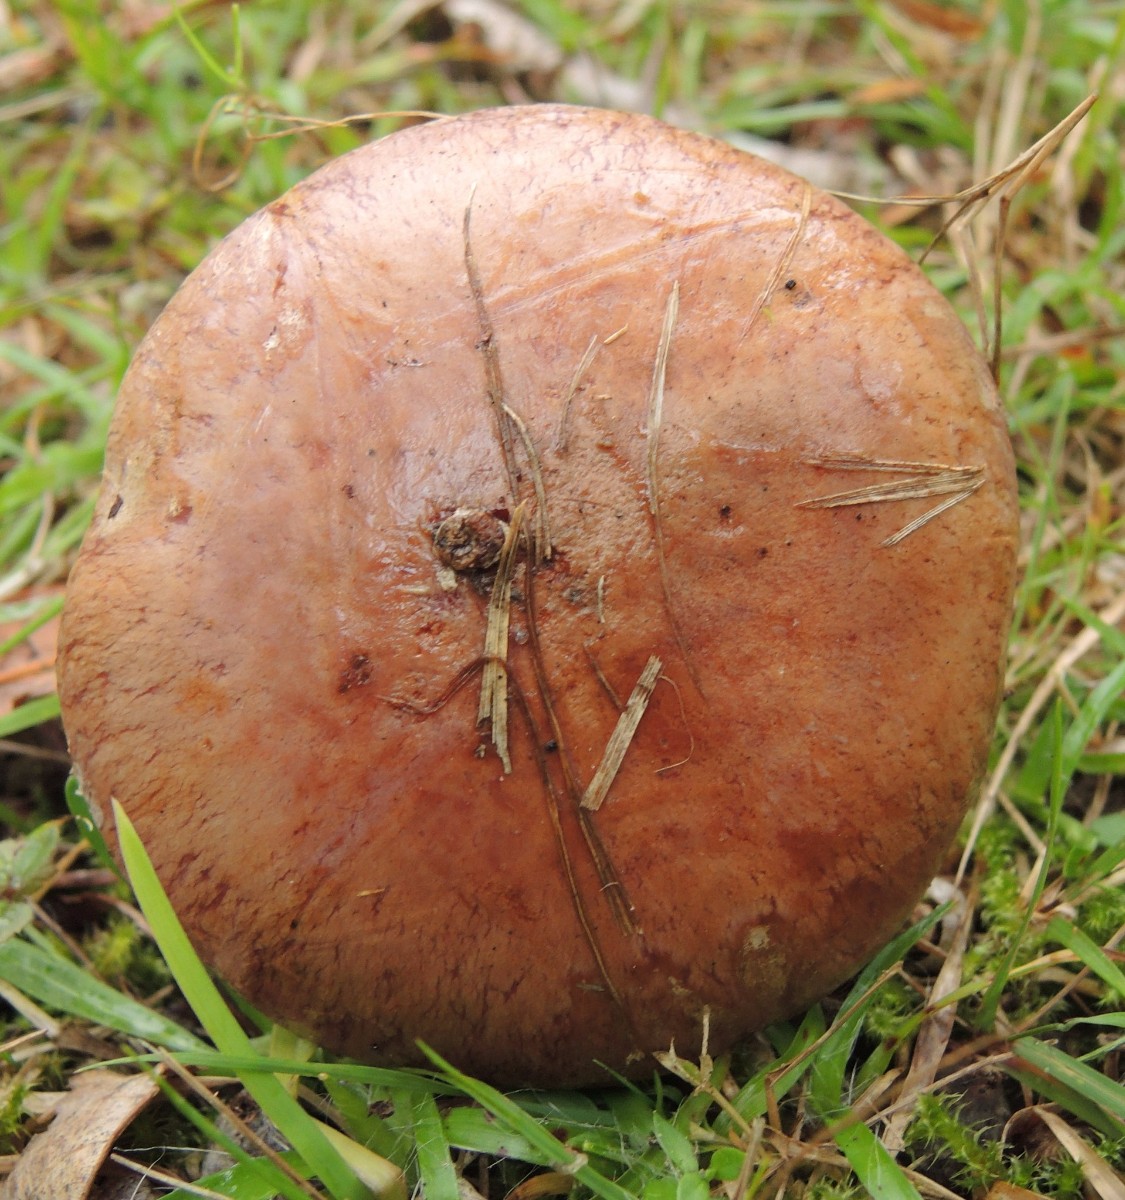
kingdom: Fungi
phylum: Basidiomycota
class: Agaricomycetes
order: Agaricales
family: Cortinariaceae
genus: Phlegmacium
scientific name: Phlegmacium balteatocumatile
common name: violettrådet slørhat
